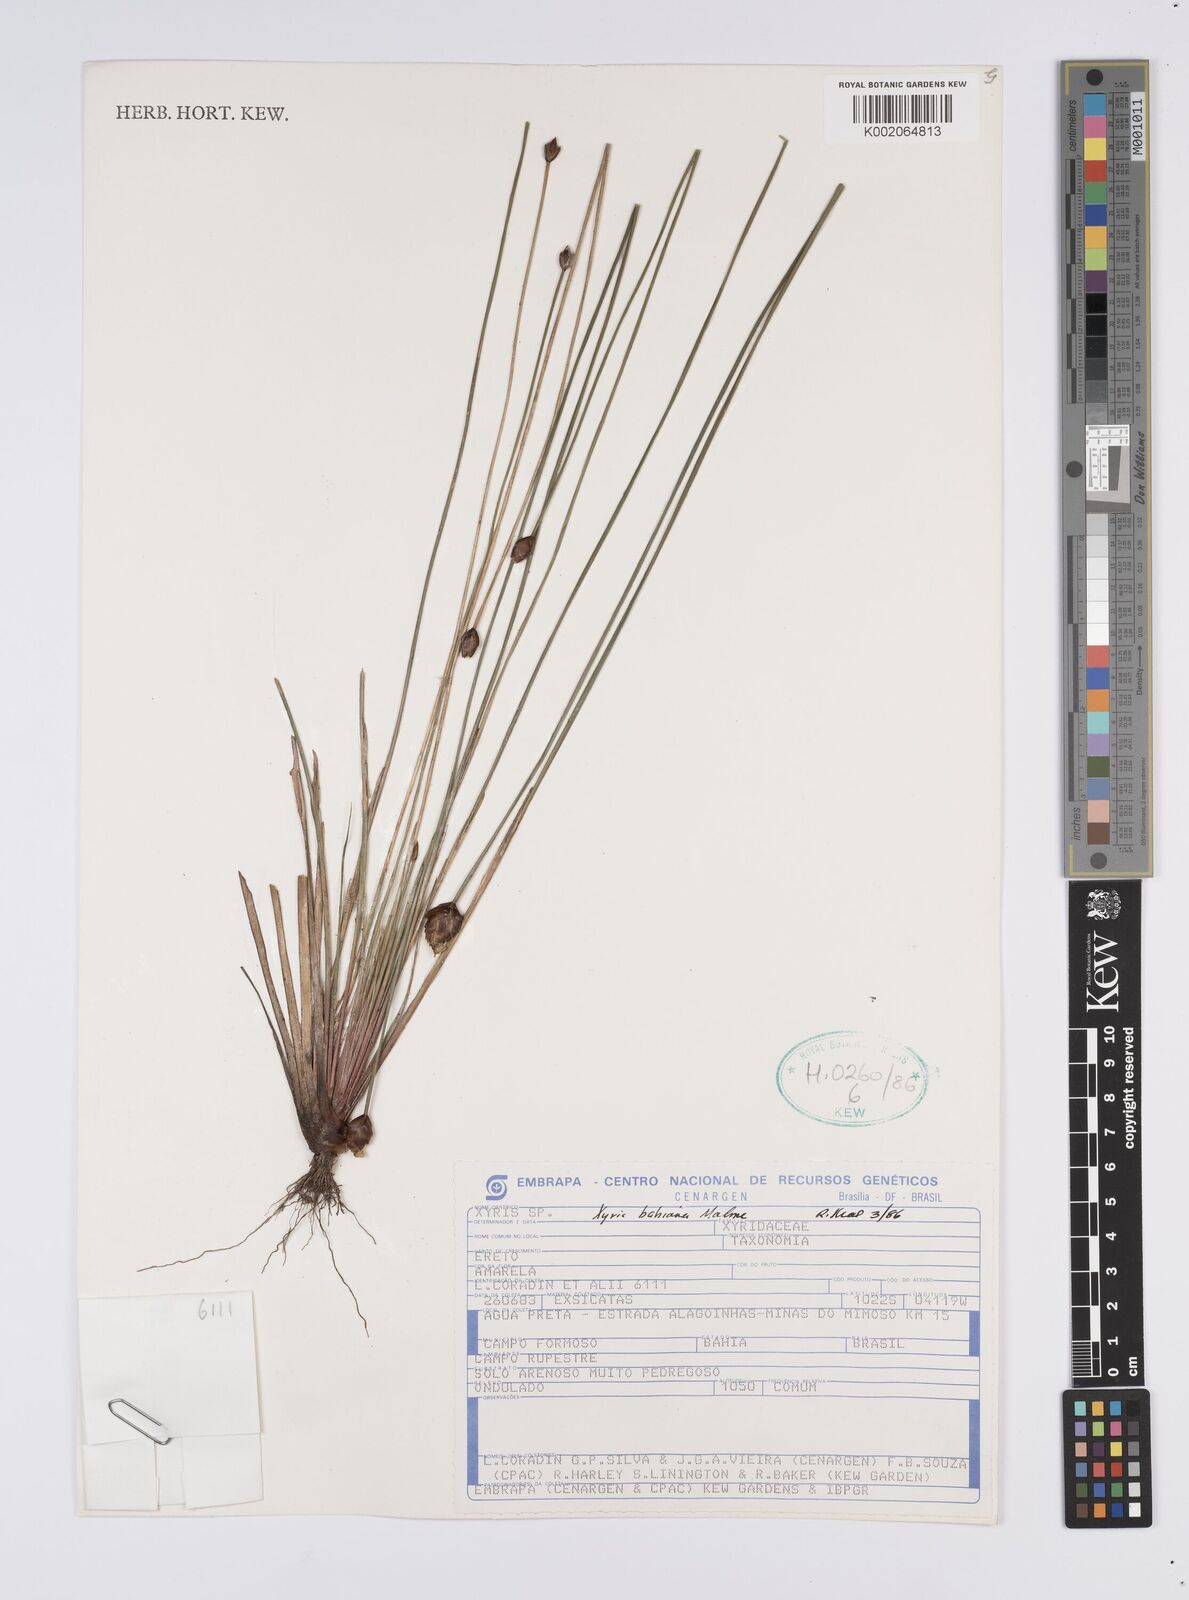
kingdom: Plantae
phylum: Tracheophyta
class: Liliopsida
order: Poales
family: Xyridaceae
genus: Xyris
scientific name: Xyris bahiana
